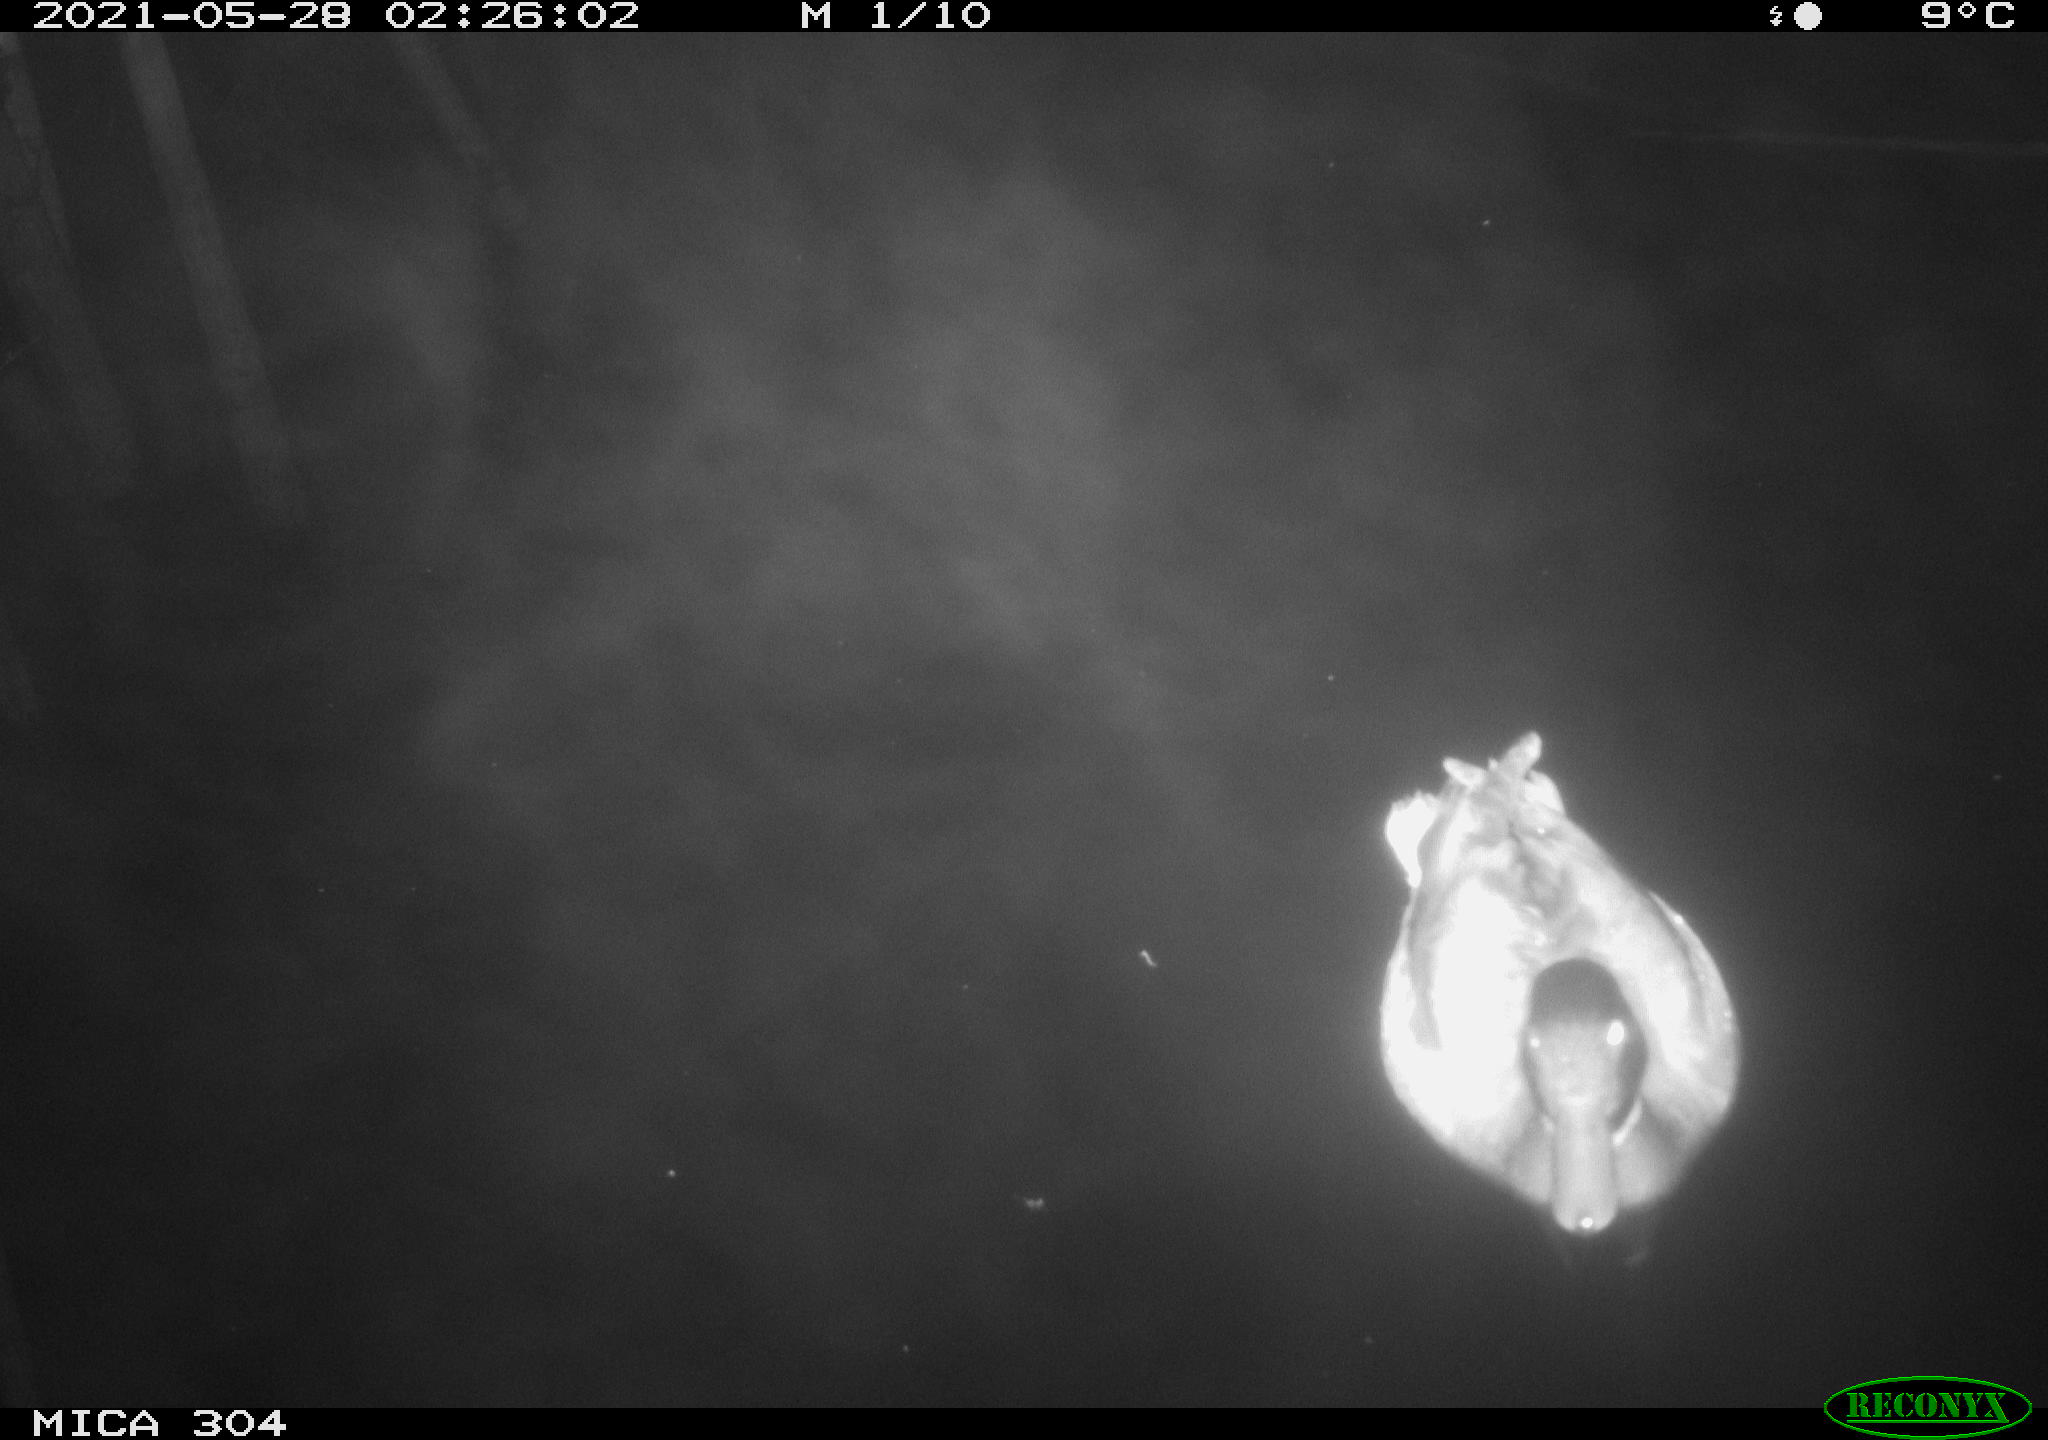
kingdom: Animalia
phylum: Chordata
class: Aves
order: Anseriformes
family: Anatidae
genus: Anas
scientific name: Anas platyrhynchos
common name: Mallard
